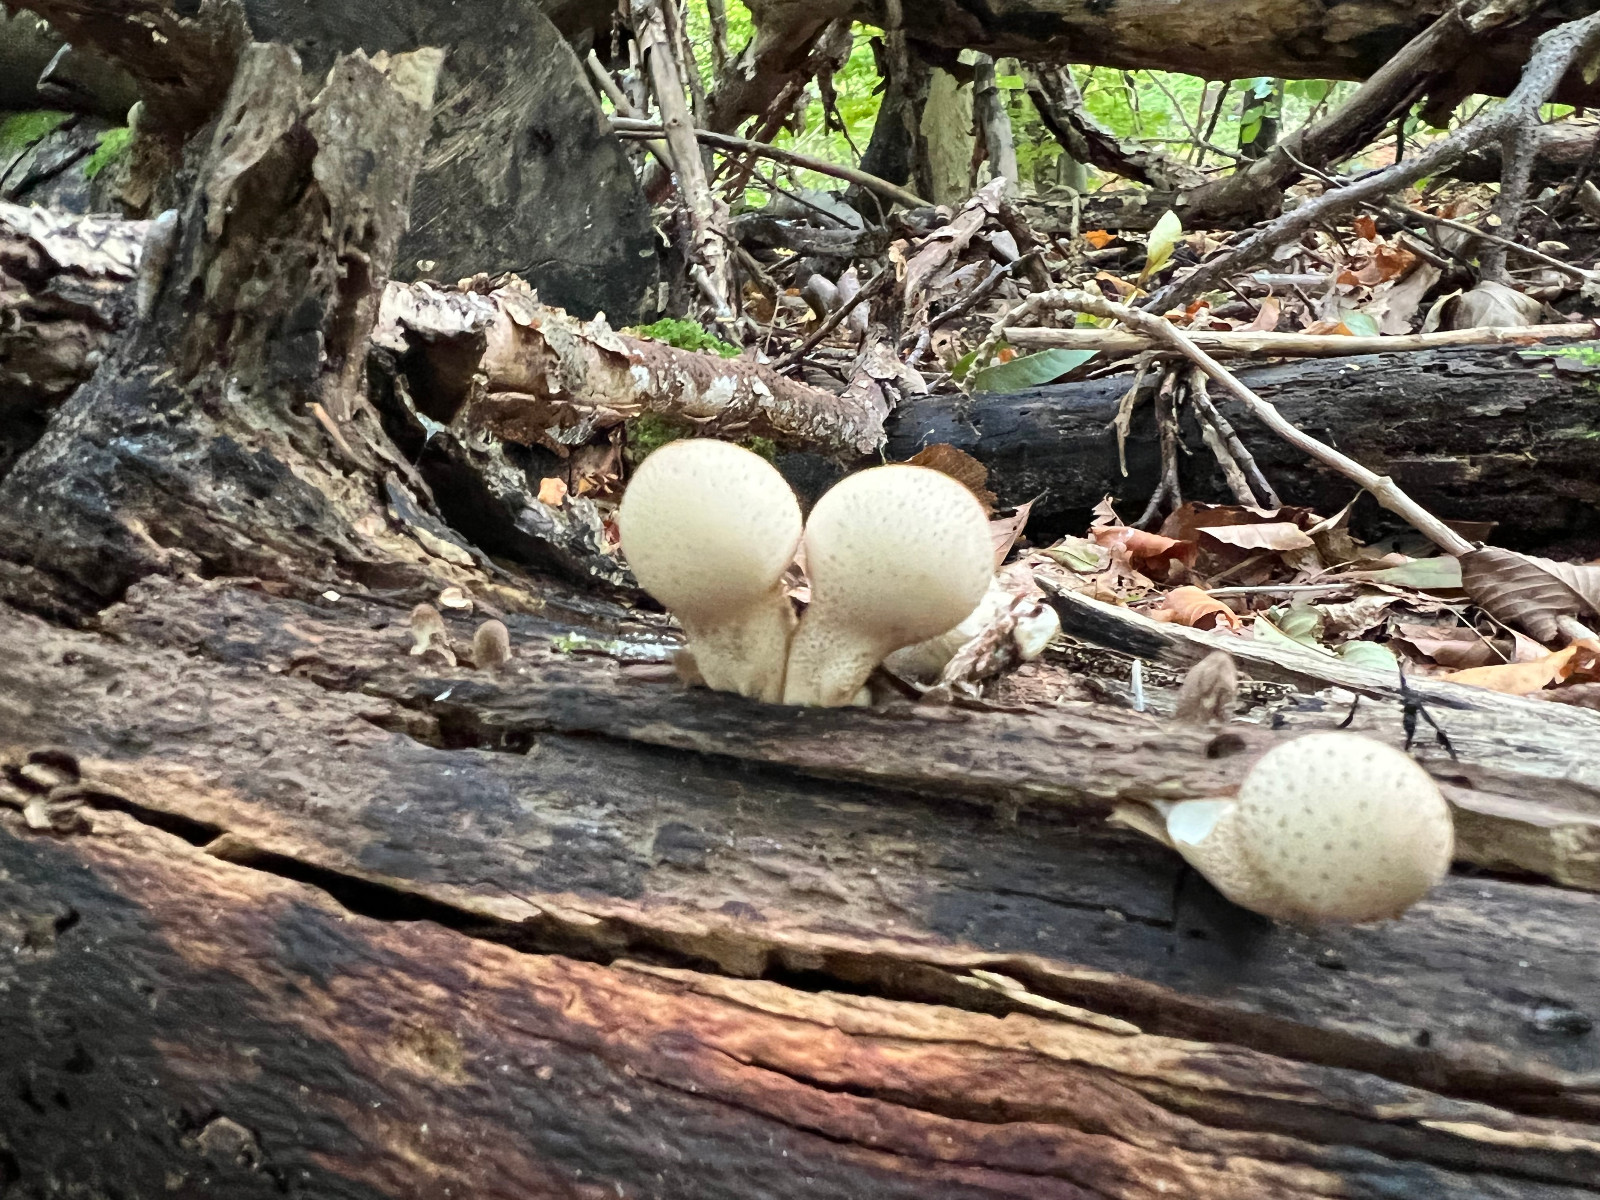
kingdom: Fungi
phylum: Basidiomycota
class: Agaricomycetes
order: Agaricales
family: Lycoperdaceae
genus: Apioperdon
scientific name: Apioperdon pyriforme
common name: pære-støvbold
